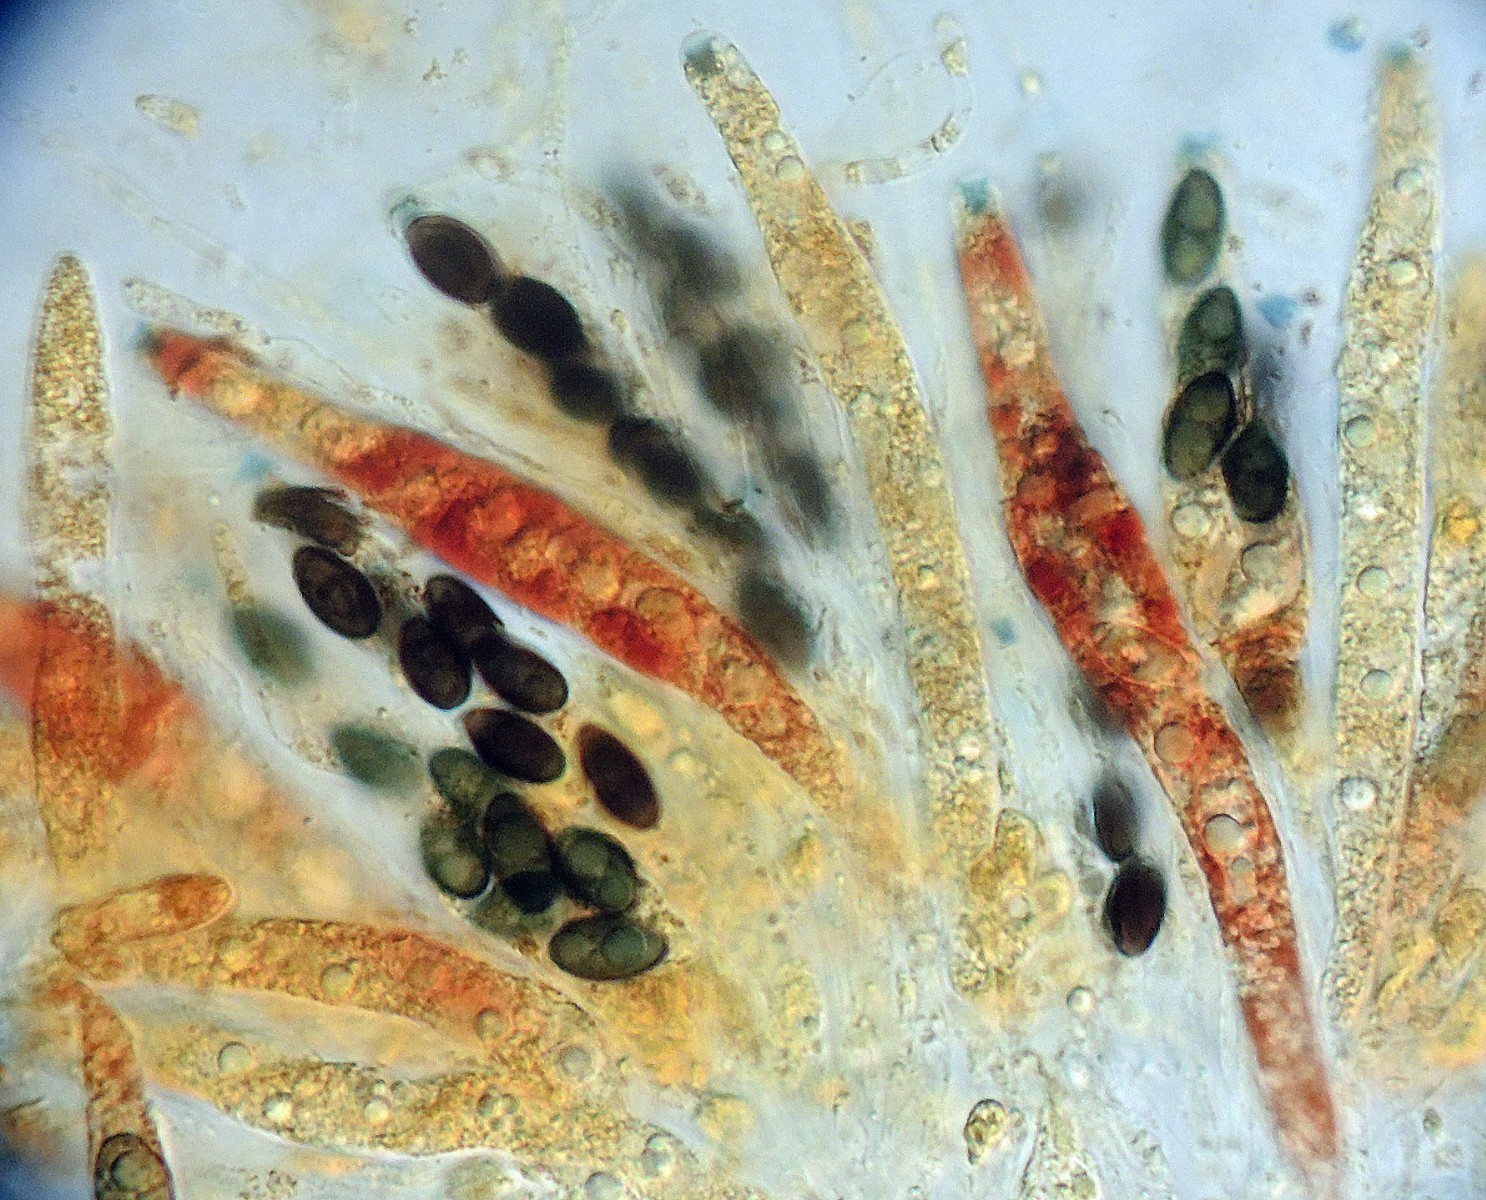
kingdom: Fungi
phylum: Ascomycota
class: Sordariomycetes
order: Xylariales
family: Xylariaceae
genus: Anthostomella
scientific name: Anthostomella
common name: skjoldkerne
